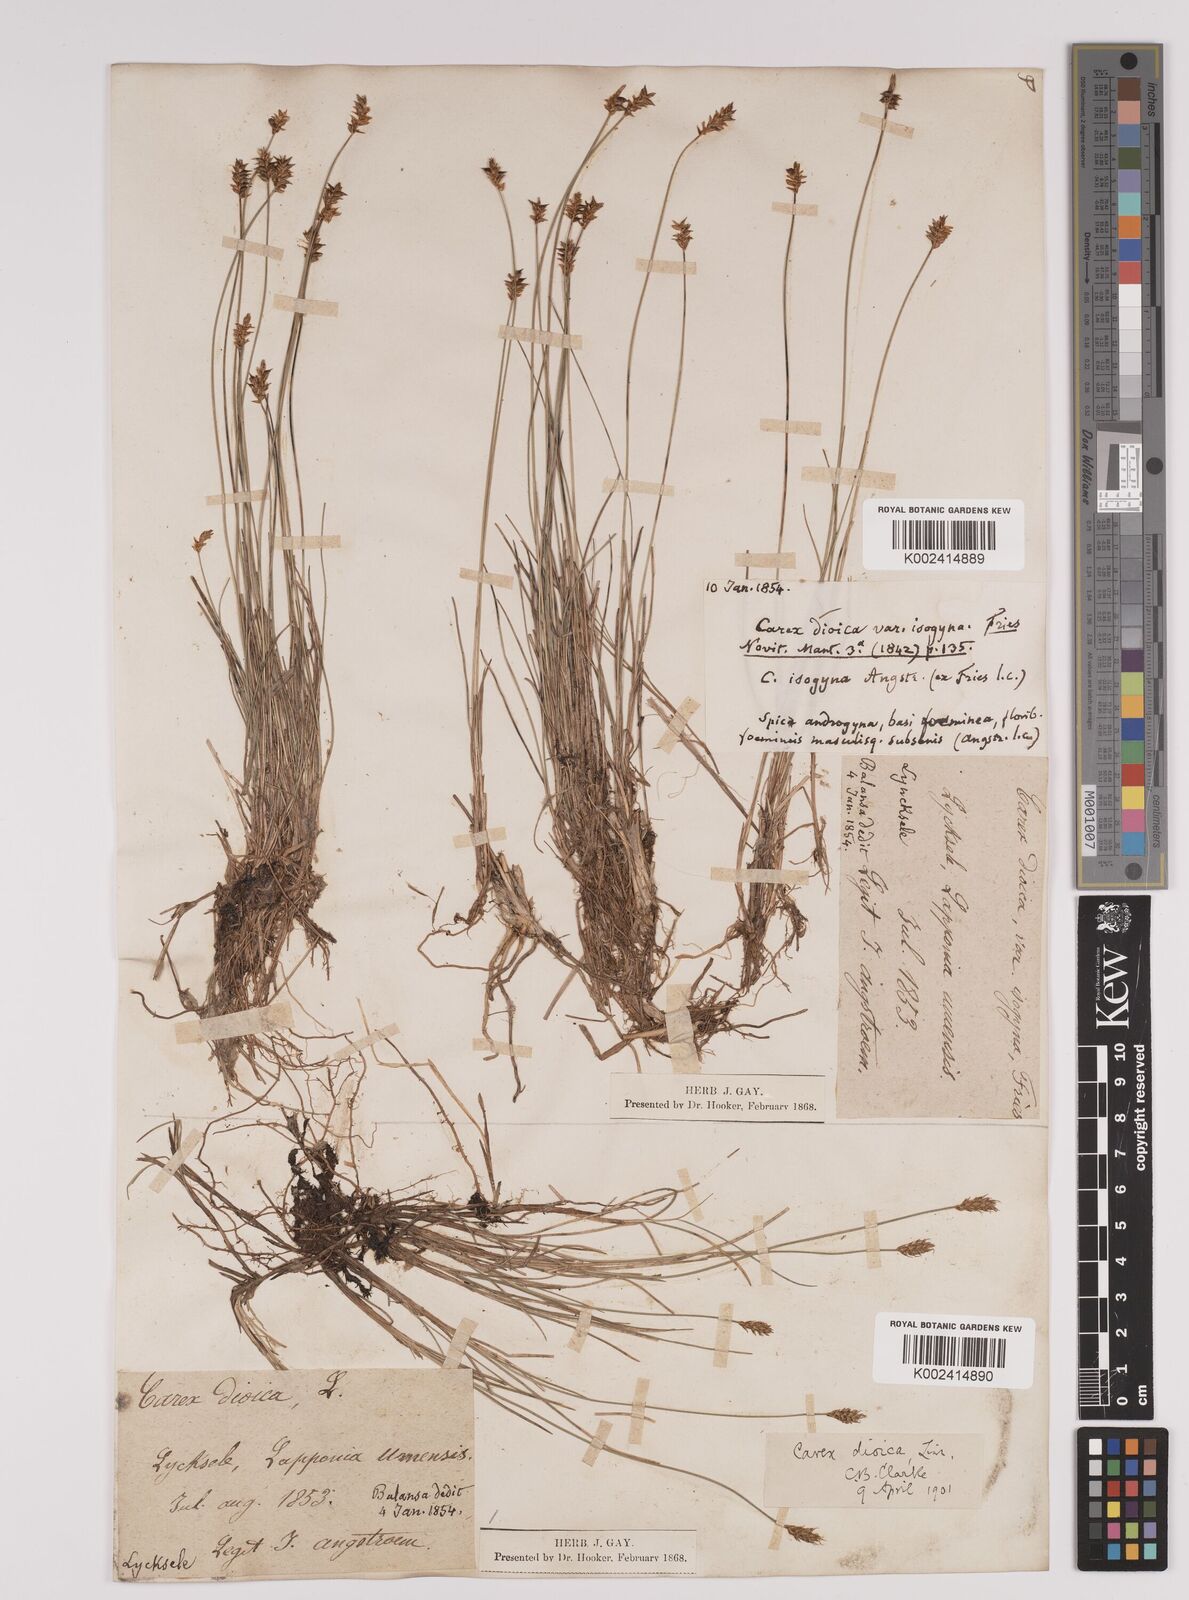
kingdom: Plantae
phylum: Tracheophyta
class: Liliopsida
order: Poales
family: Cyperaceae
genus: Carex
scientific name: Carex dioica
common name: Dioecious sedge
